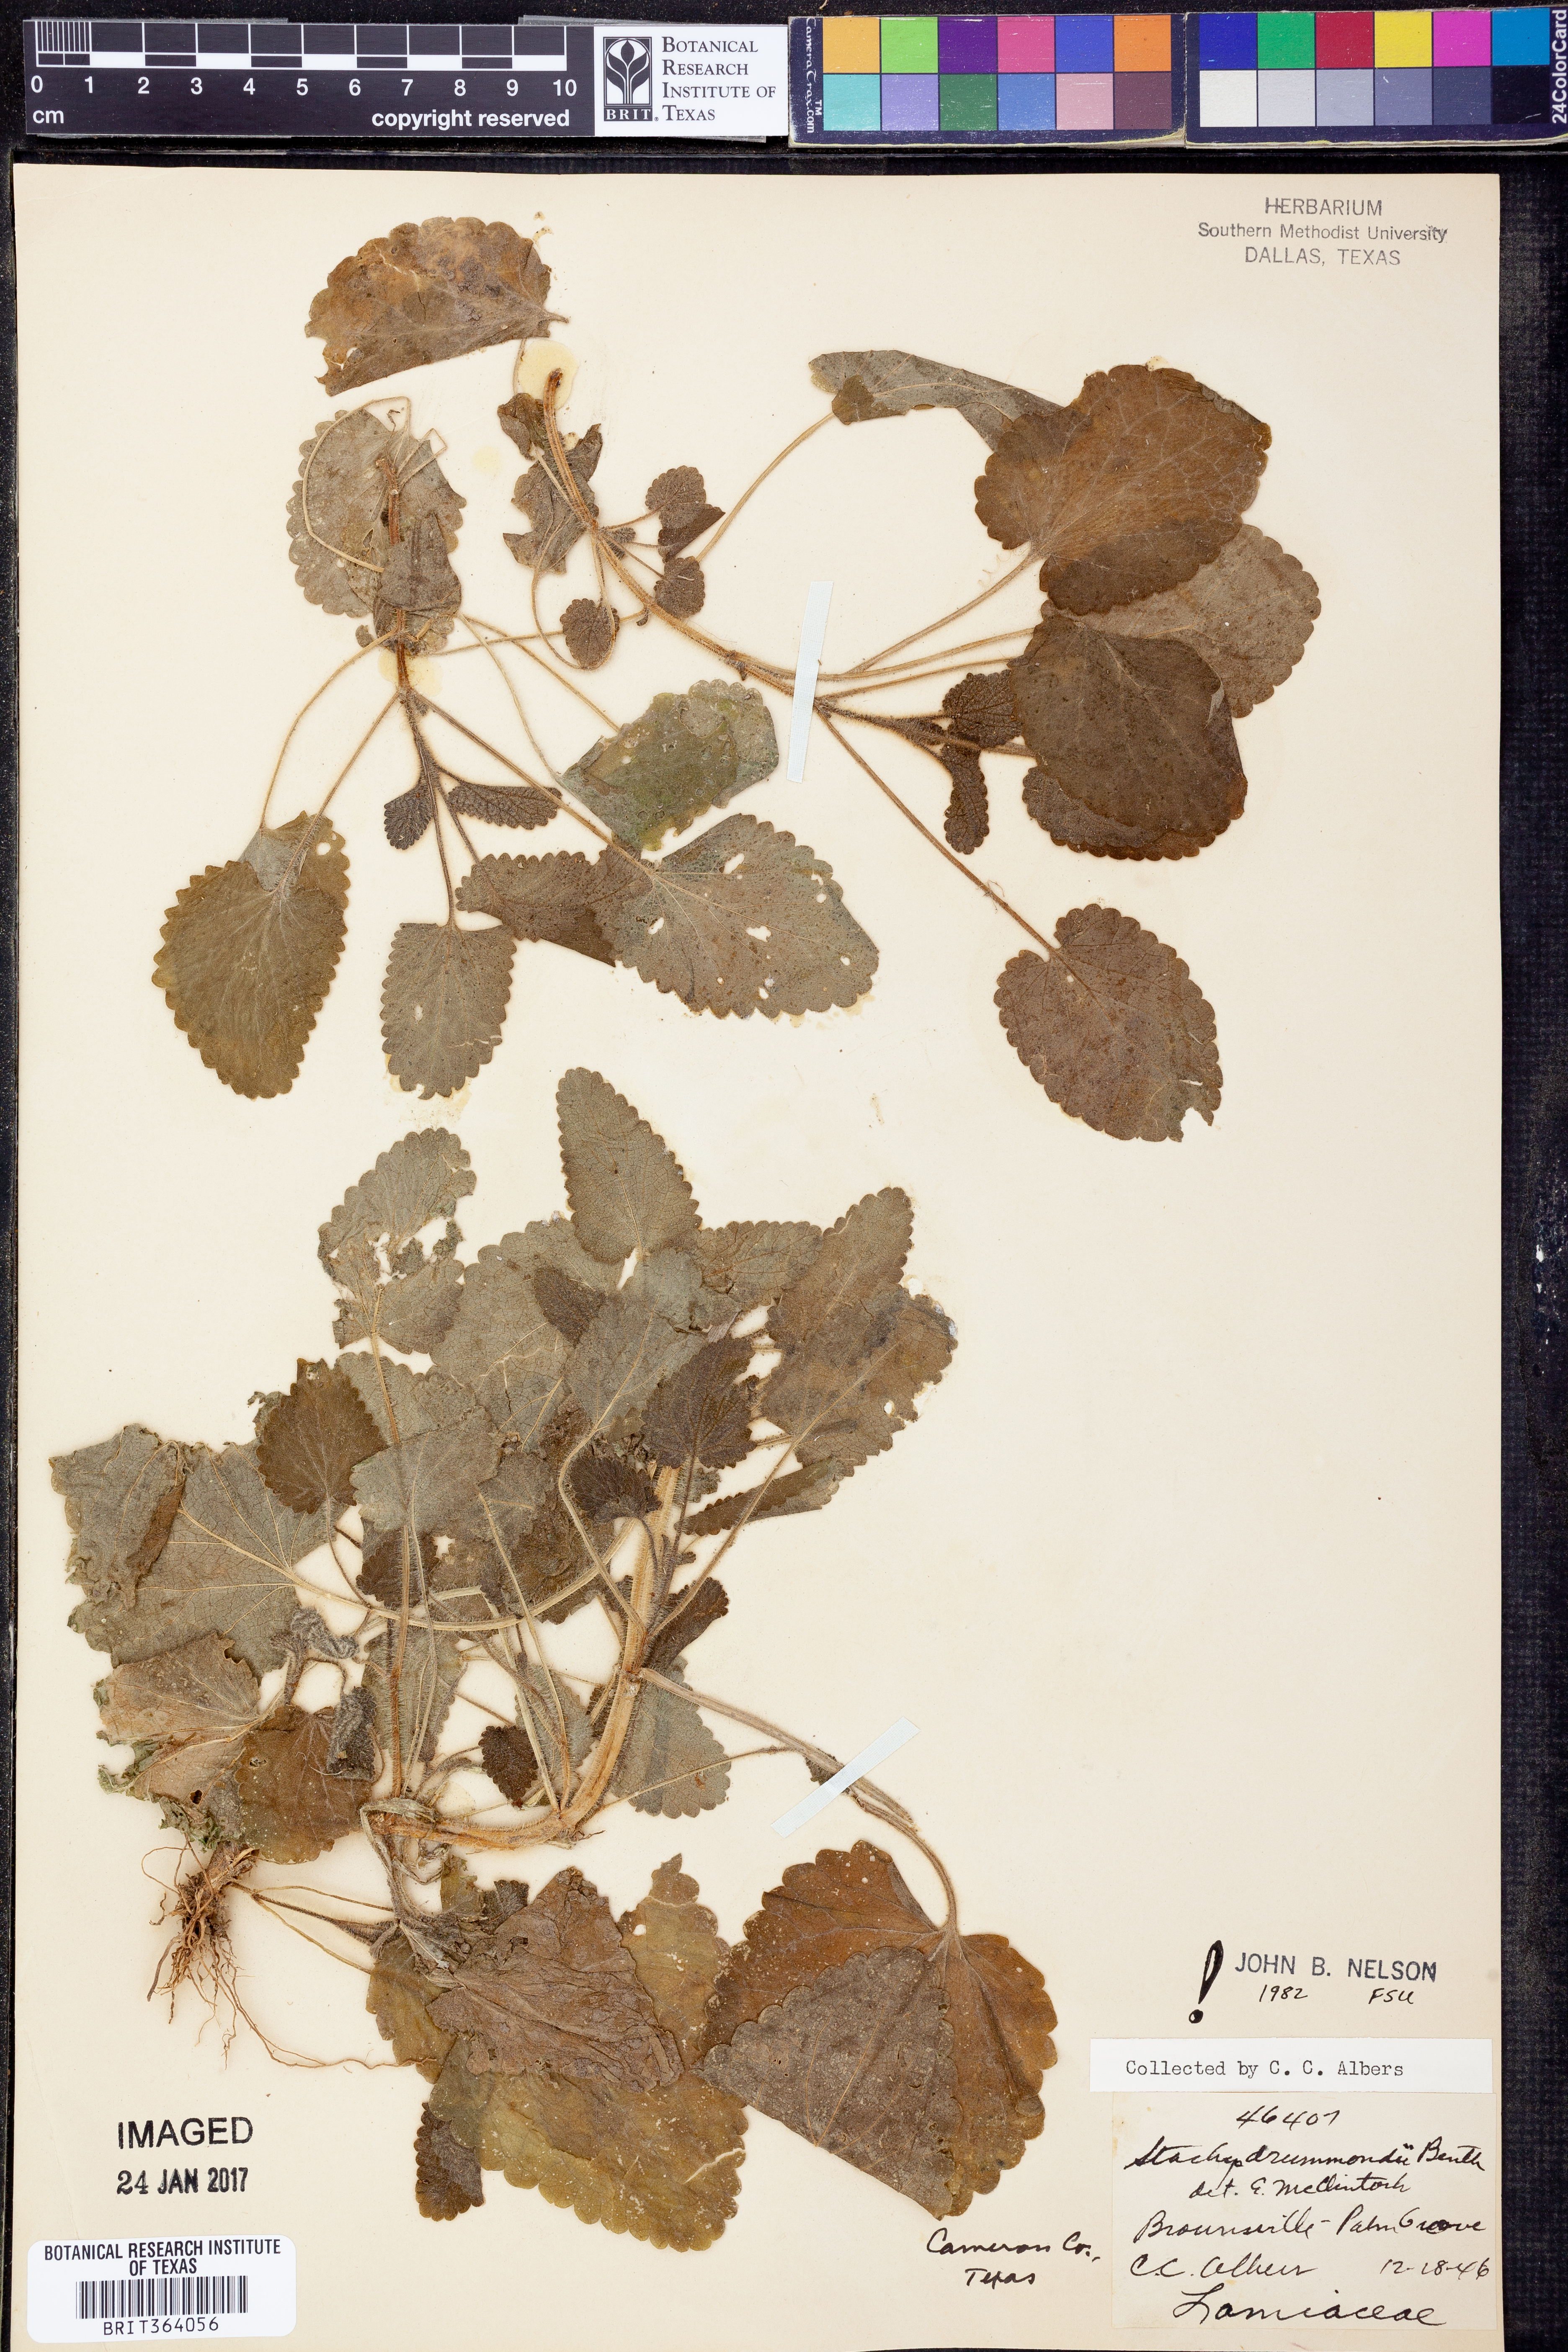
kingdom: Plantae
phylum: Tracheophyta
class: Magnoliopsida
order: Lamiales
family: Lamiaceae
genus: Stachys
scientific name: Stachys drummondii
